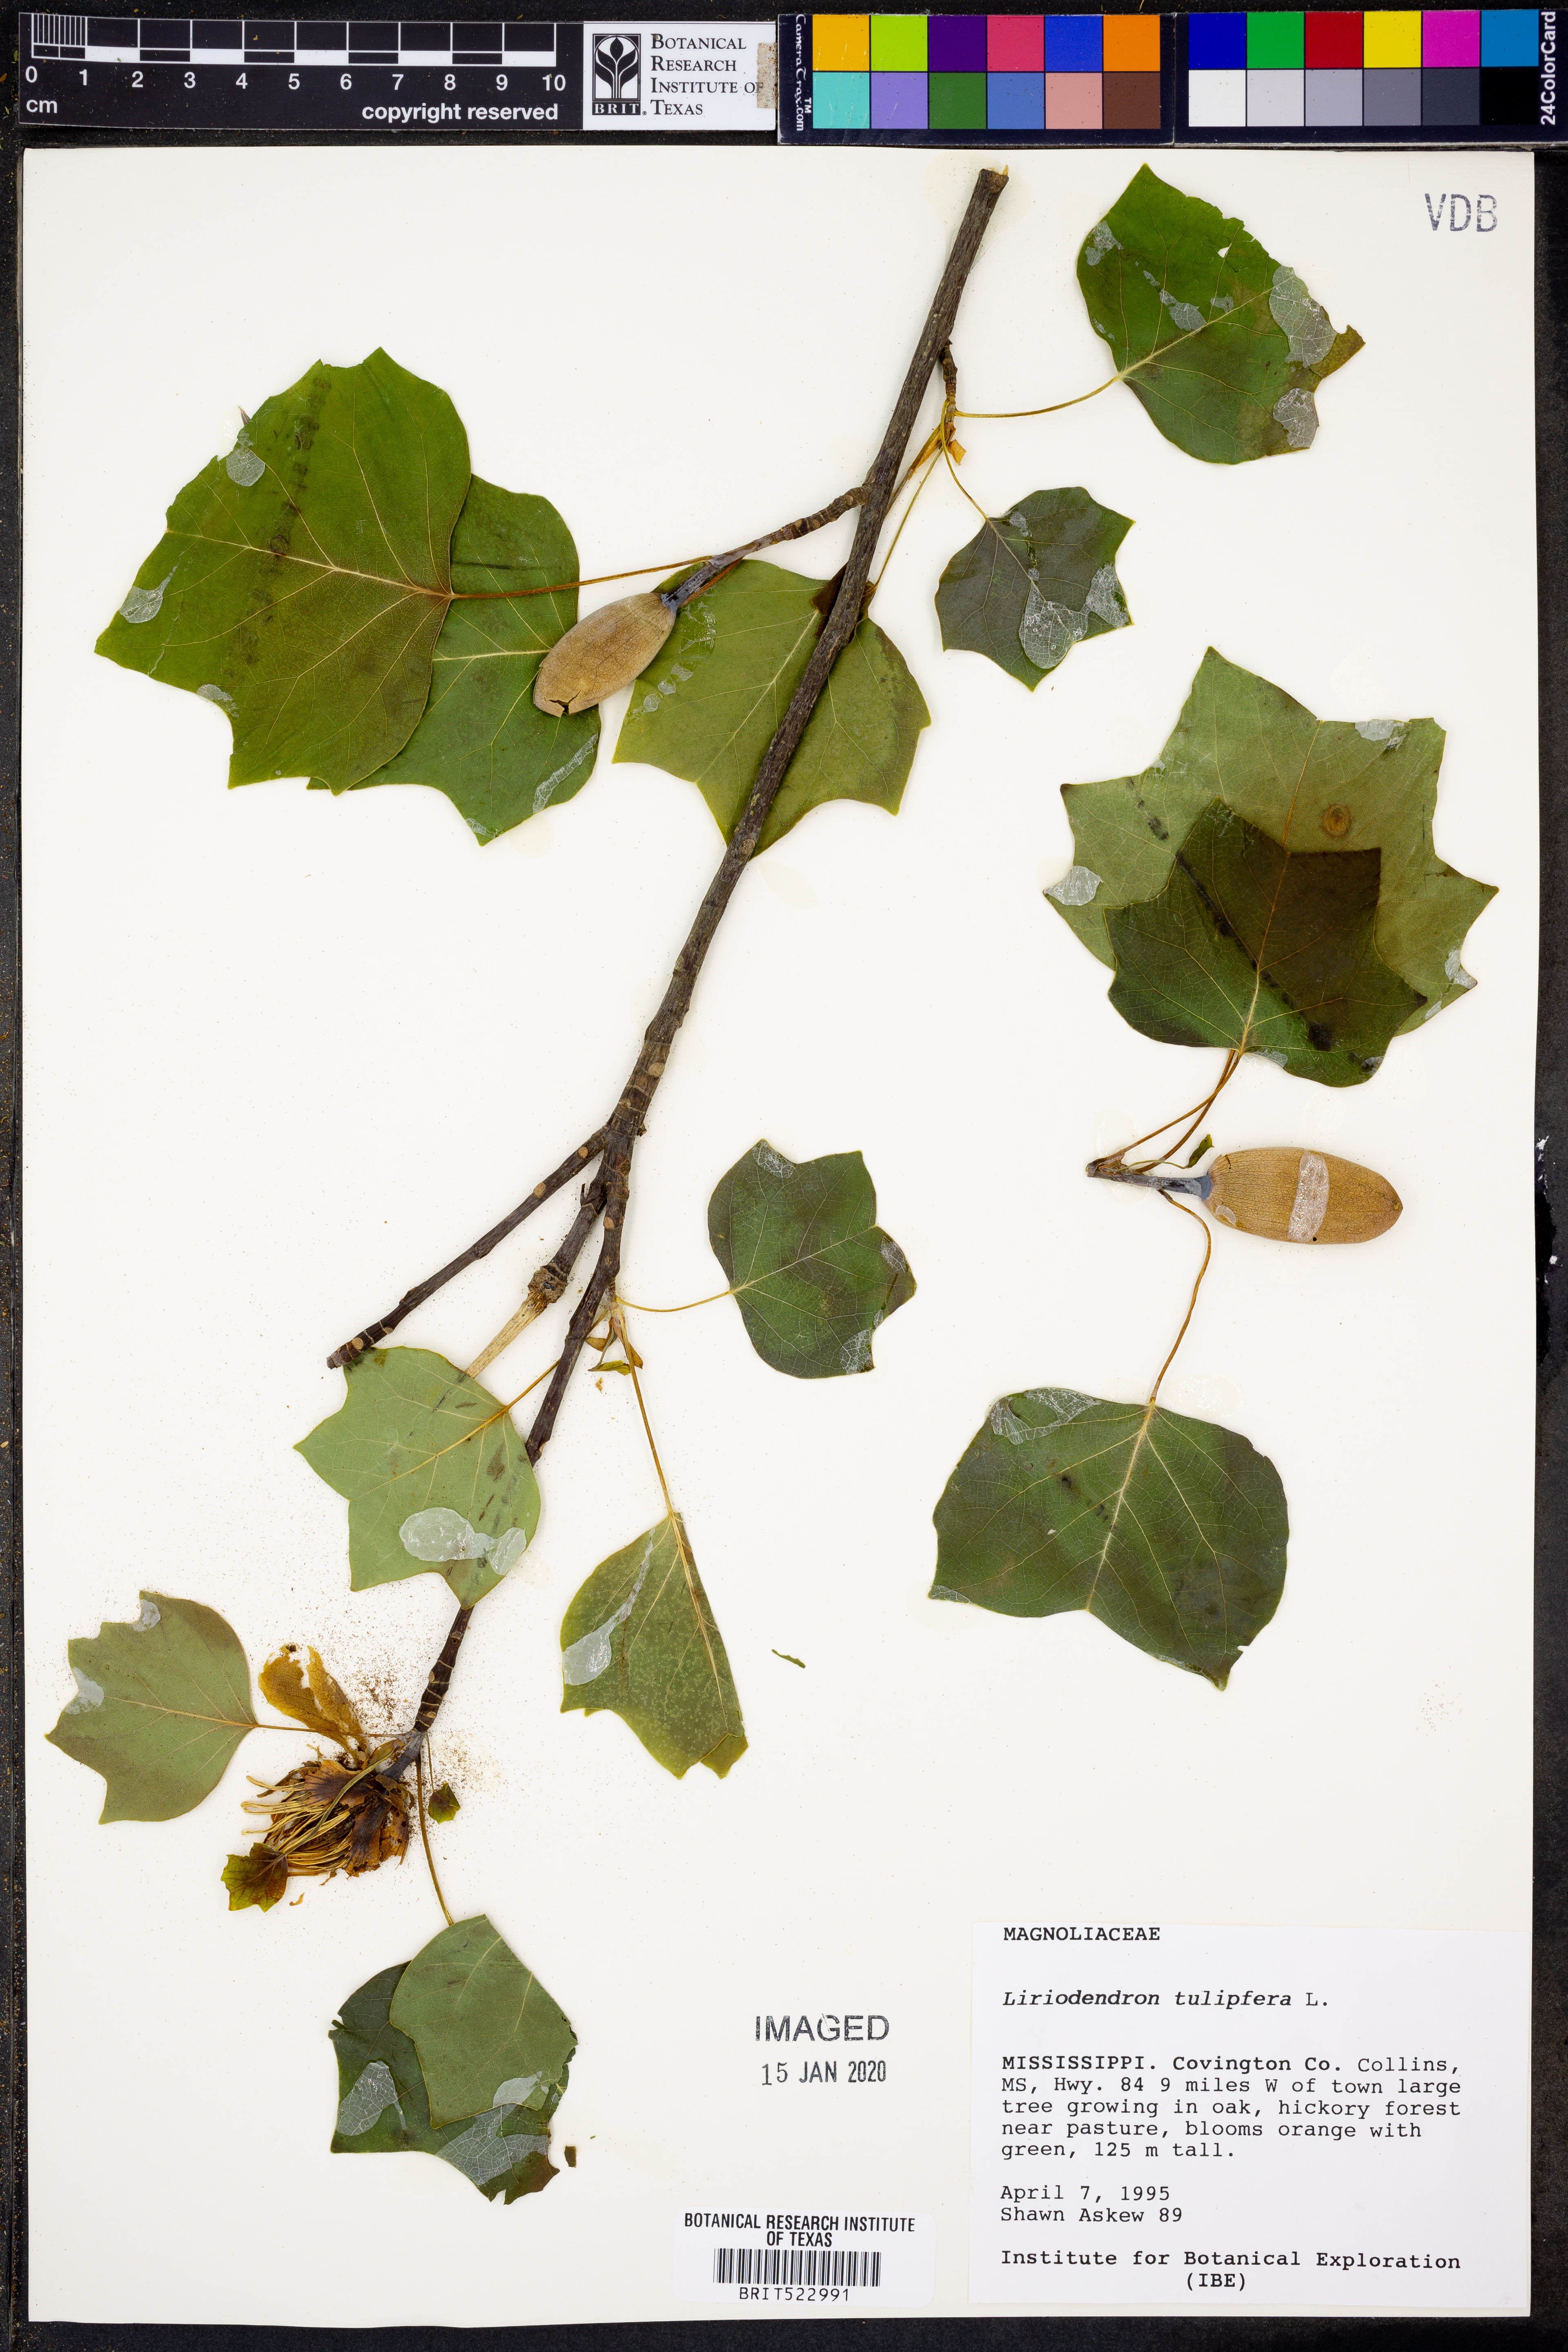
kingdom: Plantae
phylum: Tracheophyta
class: Magnoliopsida
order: Magnoliales
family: Magnoliaceae
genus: Liriodendron
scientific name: Liriodendron tulipifera
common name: Tulip tree
